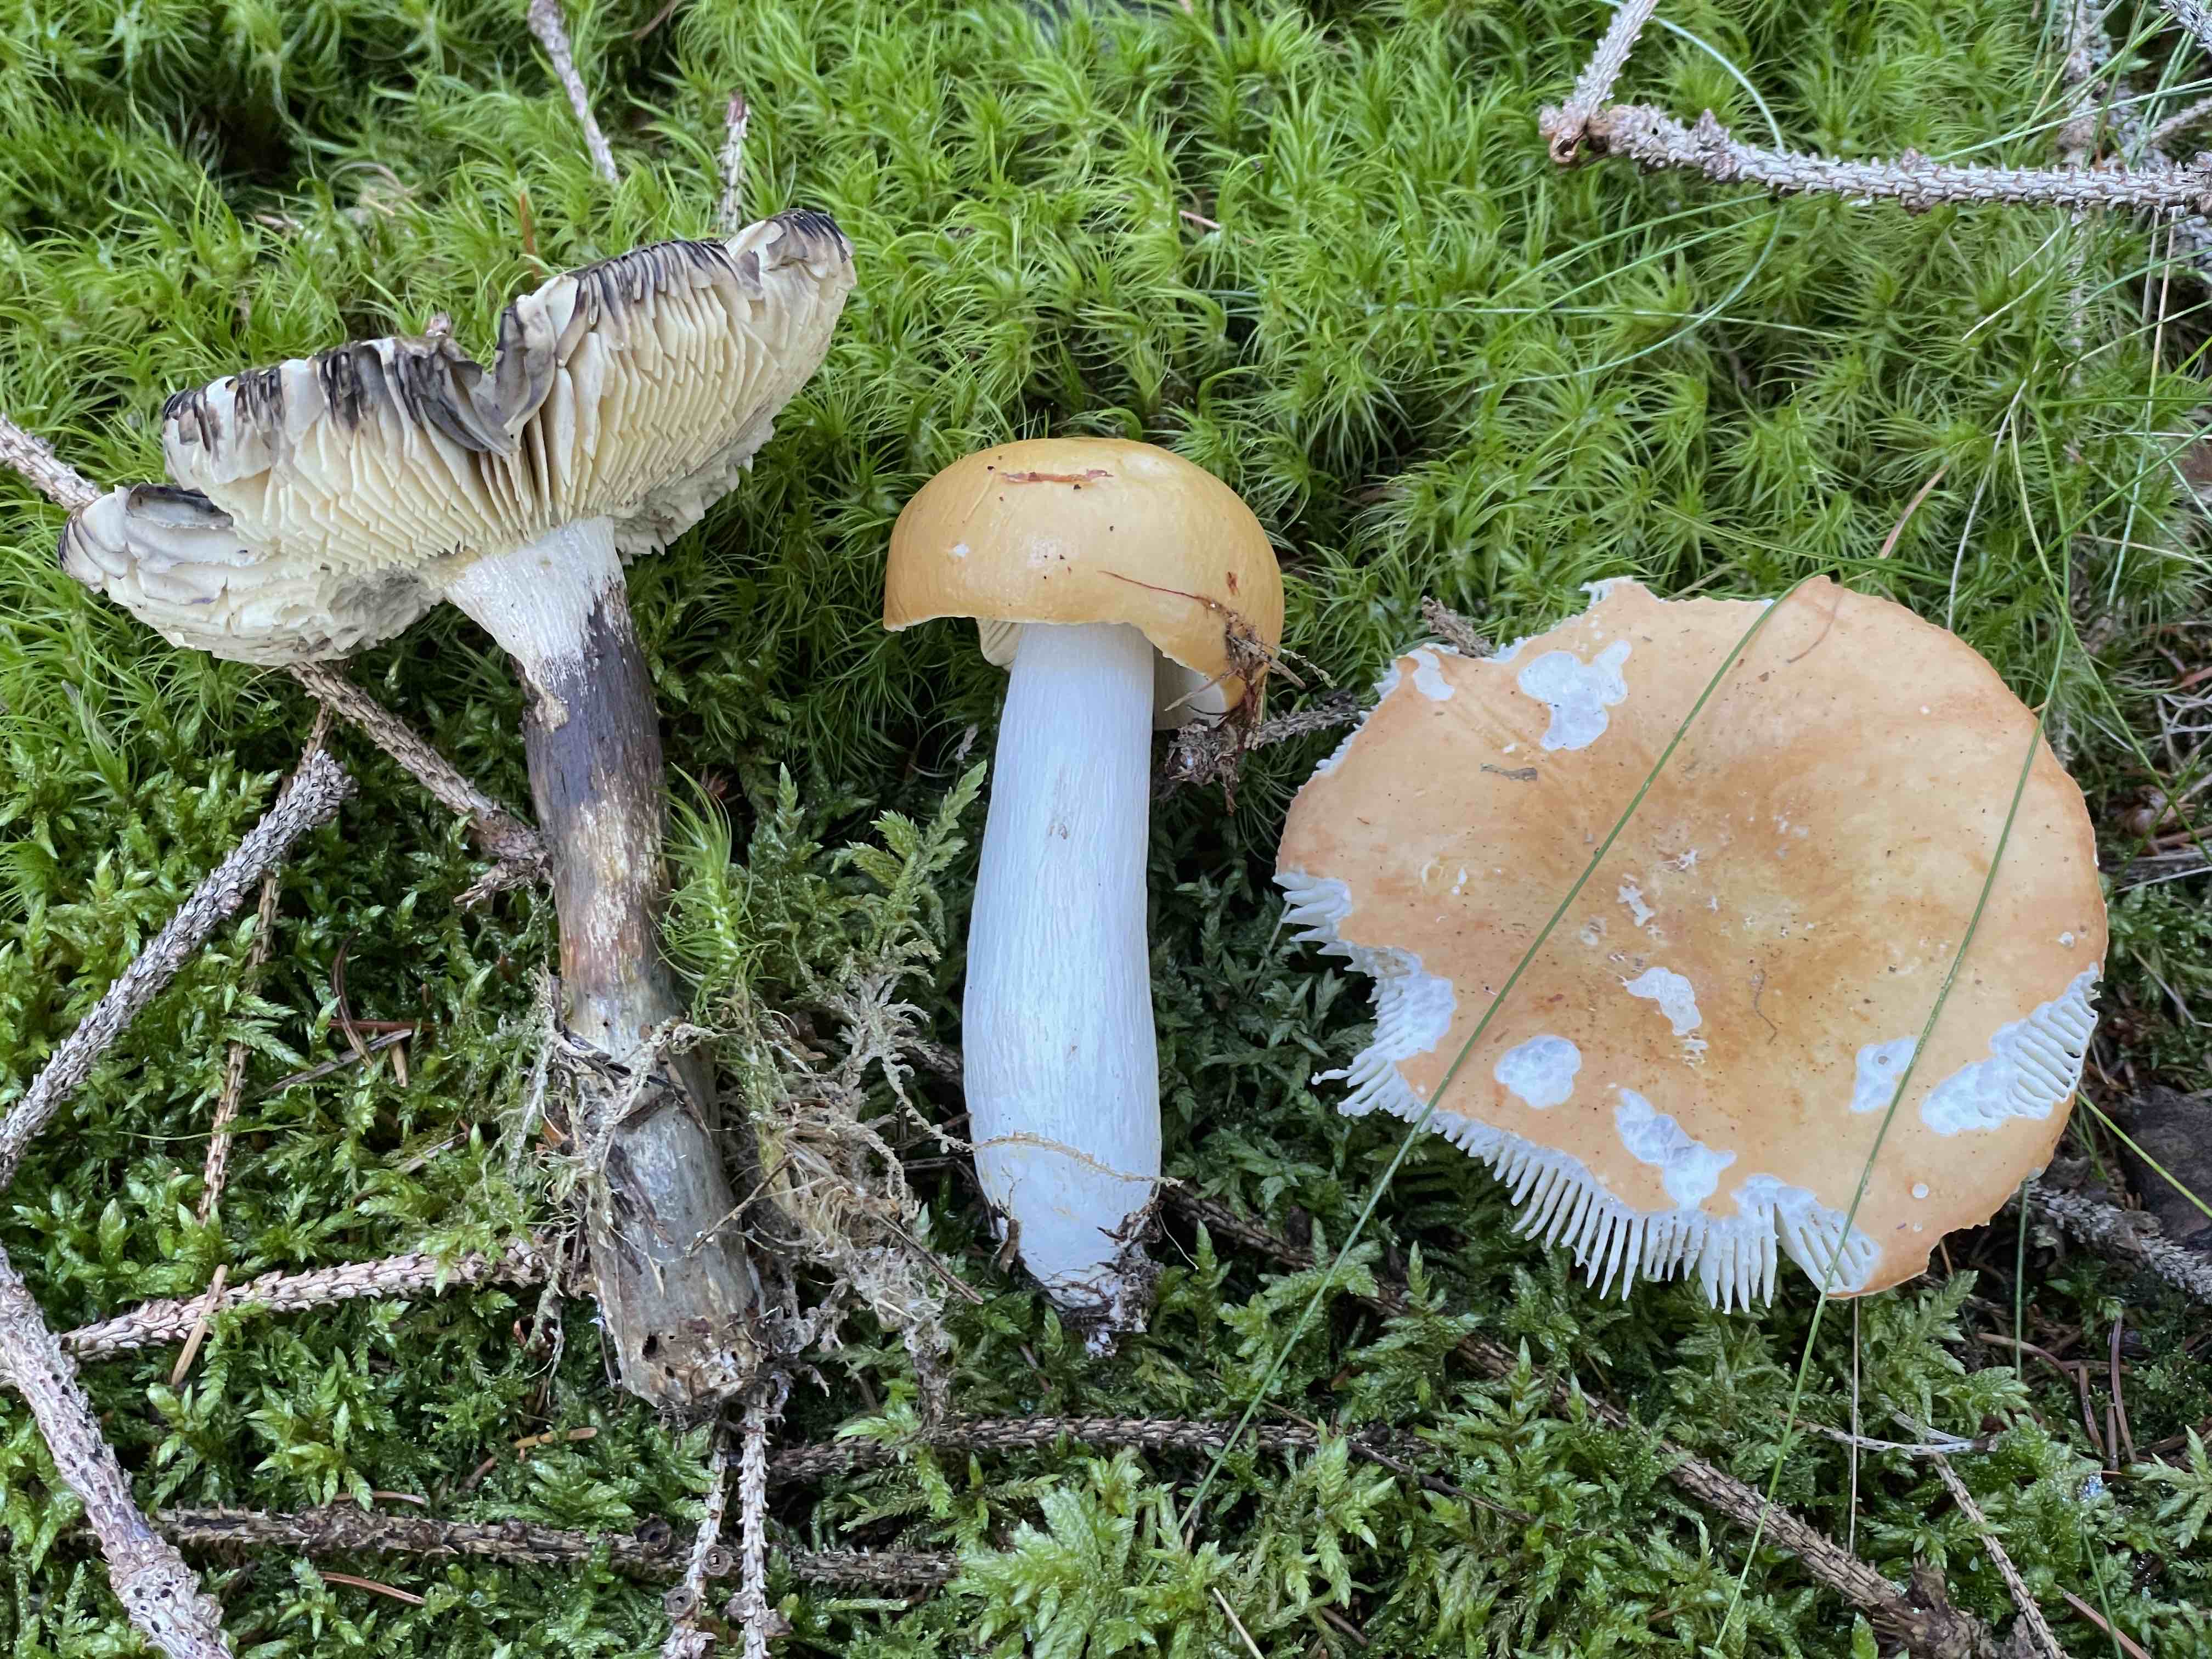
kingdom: Fungi
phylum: Basidiomycota
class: Agaricomycetes
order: Russulales
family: Russulaceae
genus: Russula
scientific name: Russula decolorans
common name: afblegende skørhat
